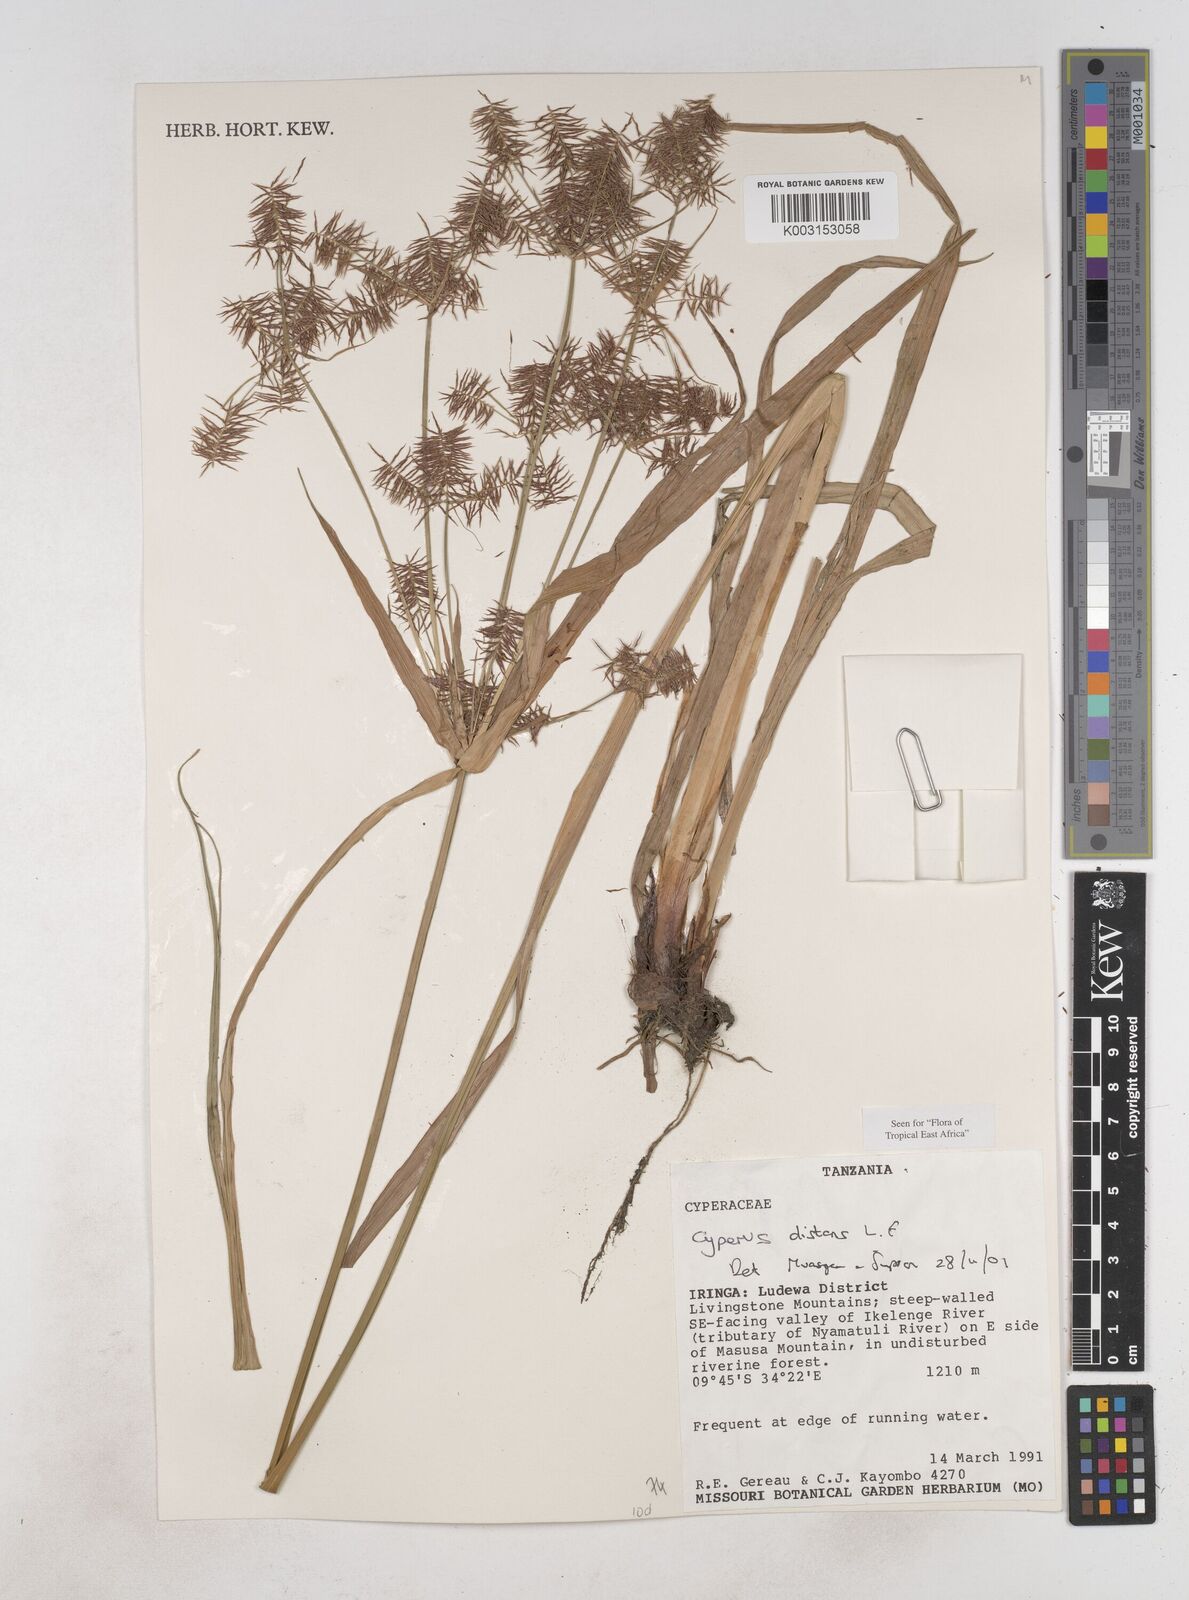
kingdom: Plantae
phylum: Tracheophyta
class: Liliopsida
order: Poales
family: Cyperaceae
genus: Cyperus
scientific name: Cyperus distans
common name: Slender cyperus
